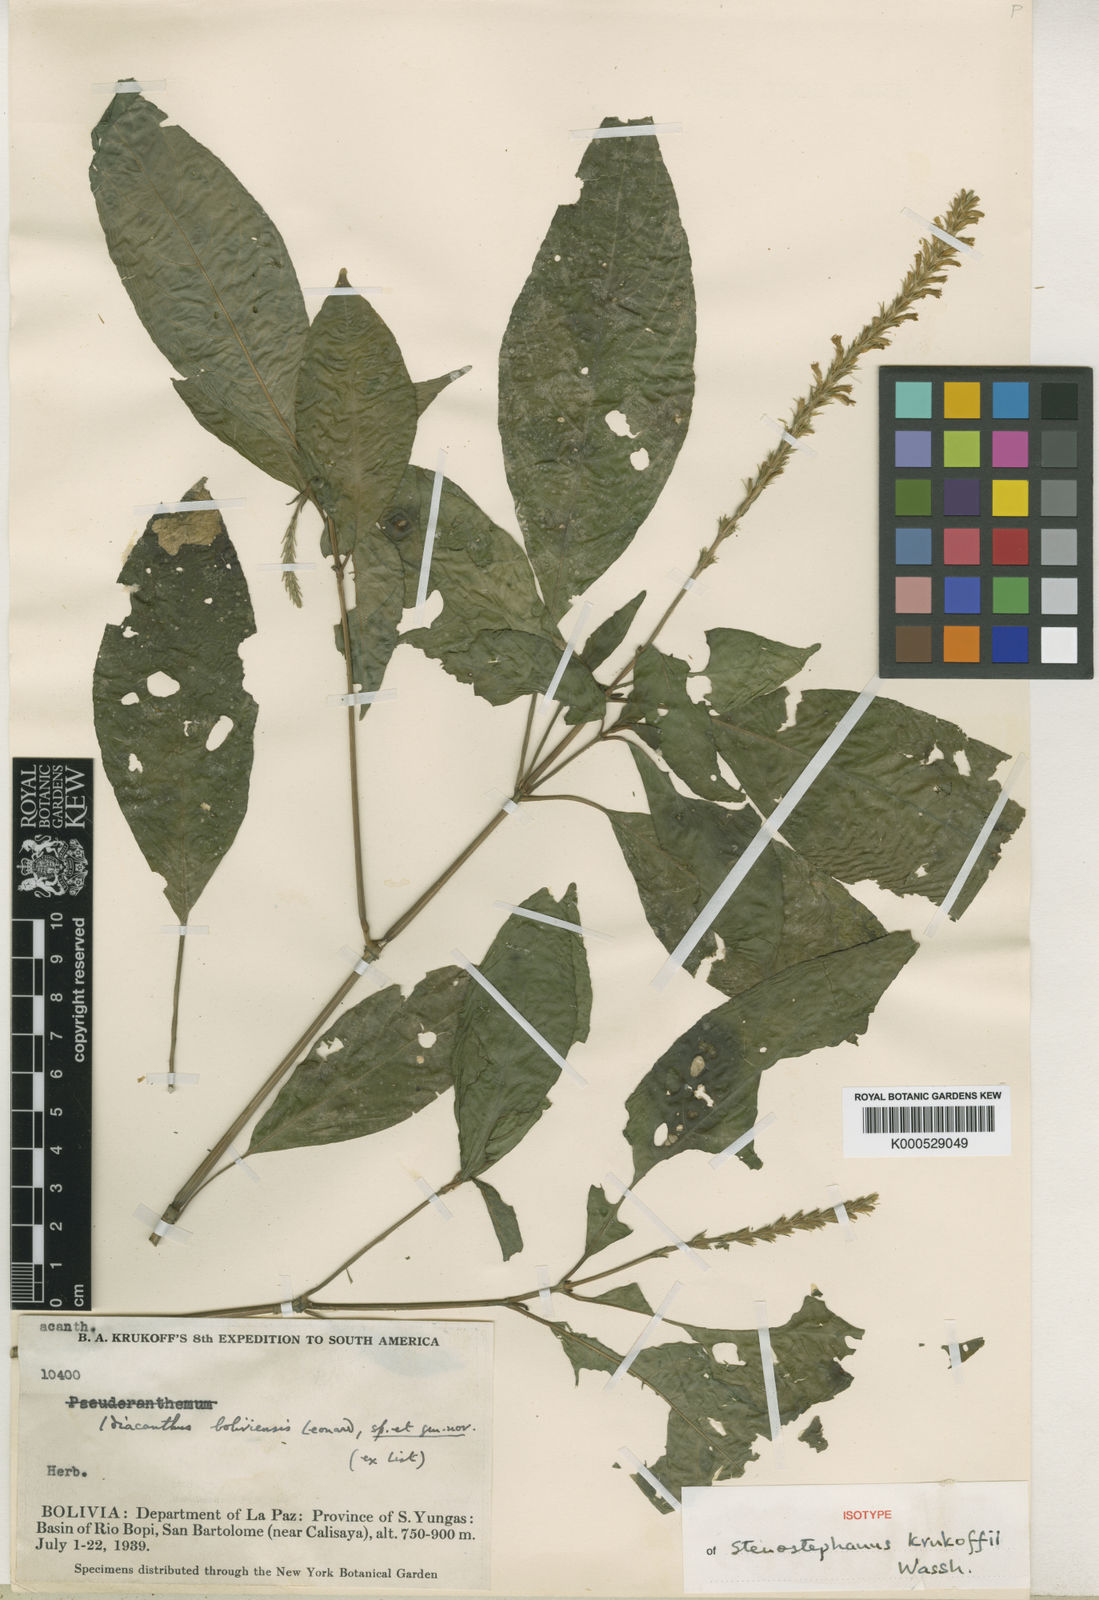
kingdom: Plantae
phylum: Tracheophyta
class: Magnoliopsida
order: Lamiales
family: Acanthaceae
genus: Stenostephanus
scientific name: Stenostephanus krukoffii
